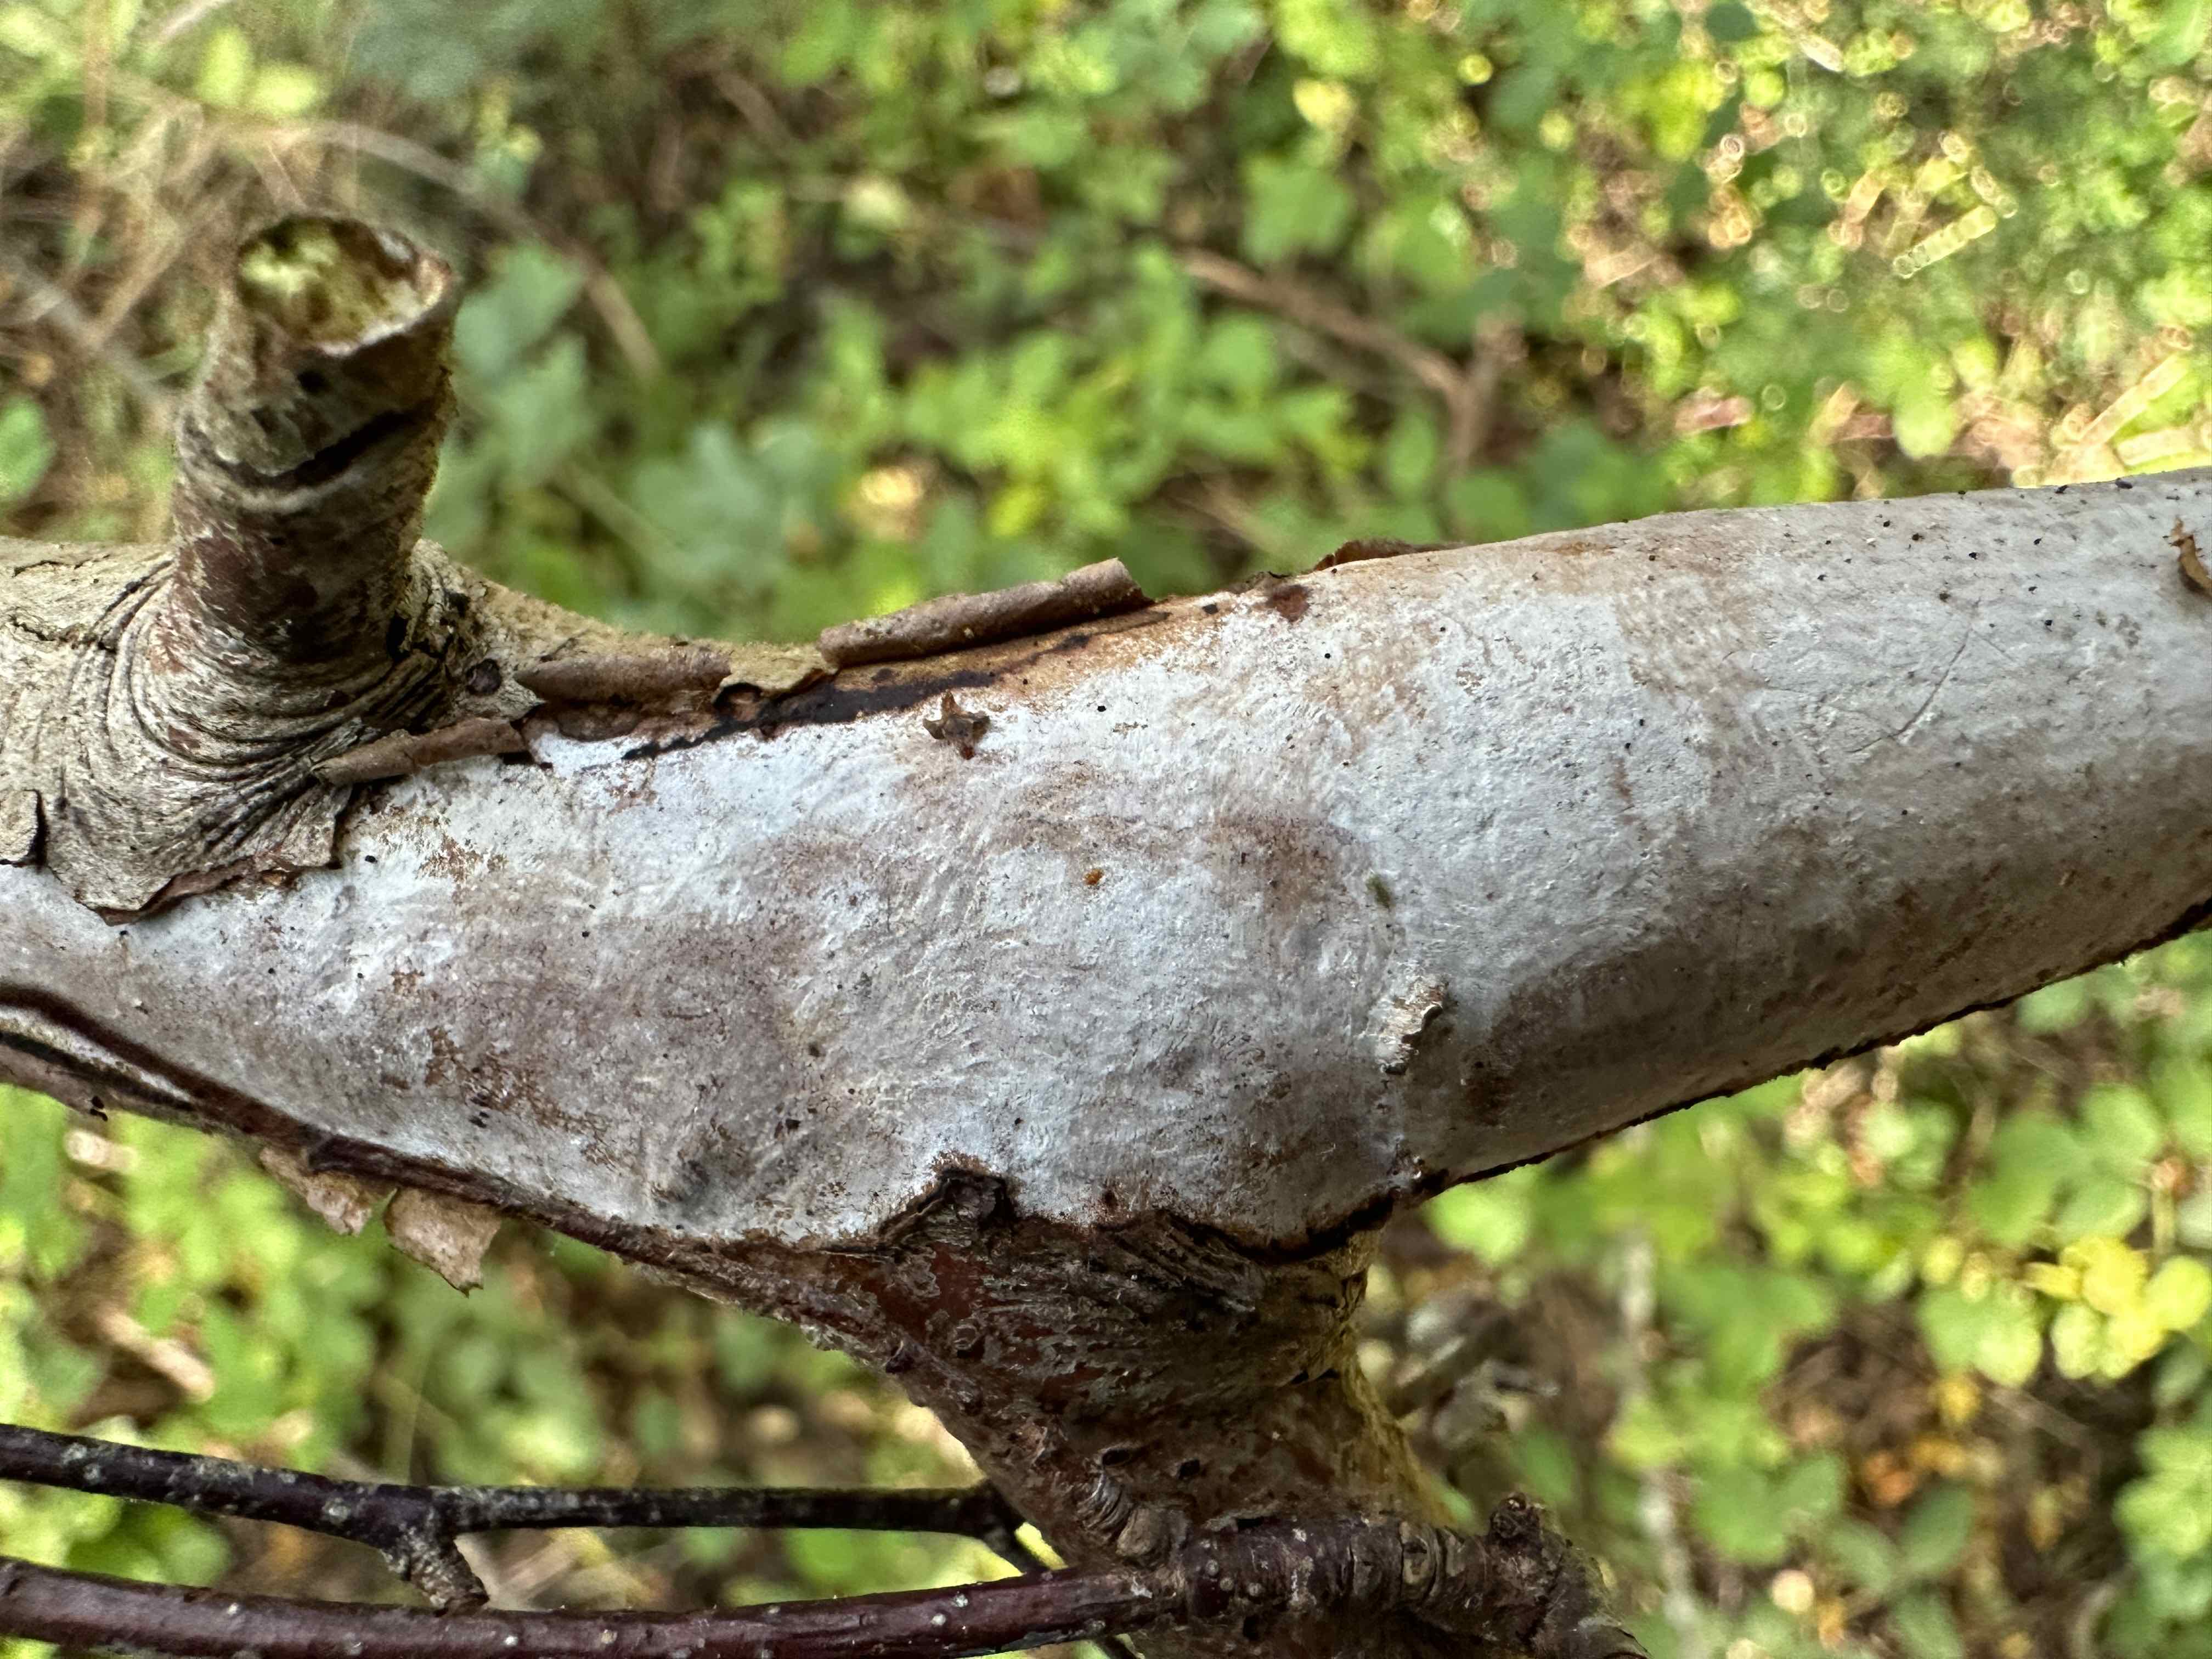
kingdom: Fungi
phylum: Basidiomycota
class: Agaricomycetes
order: Corticiales
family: Vuilleminiaceae
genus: Vuilleminia
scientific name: Vuilleminia coryli
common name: hassel-barksprænger
